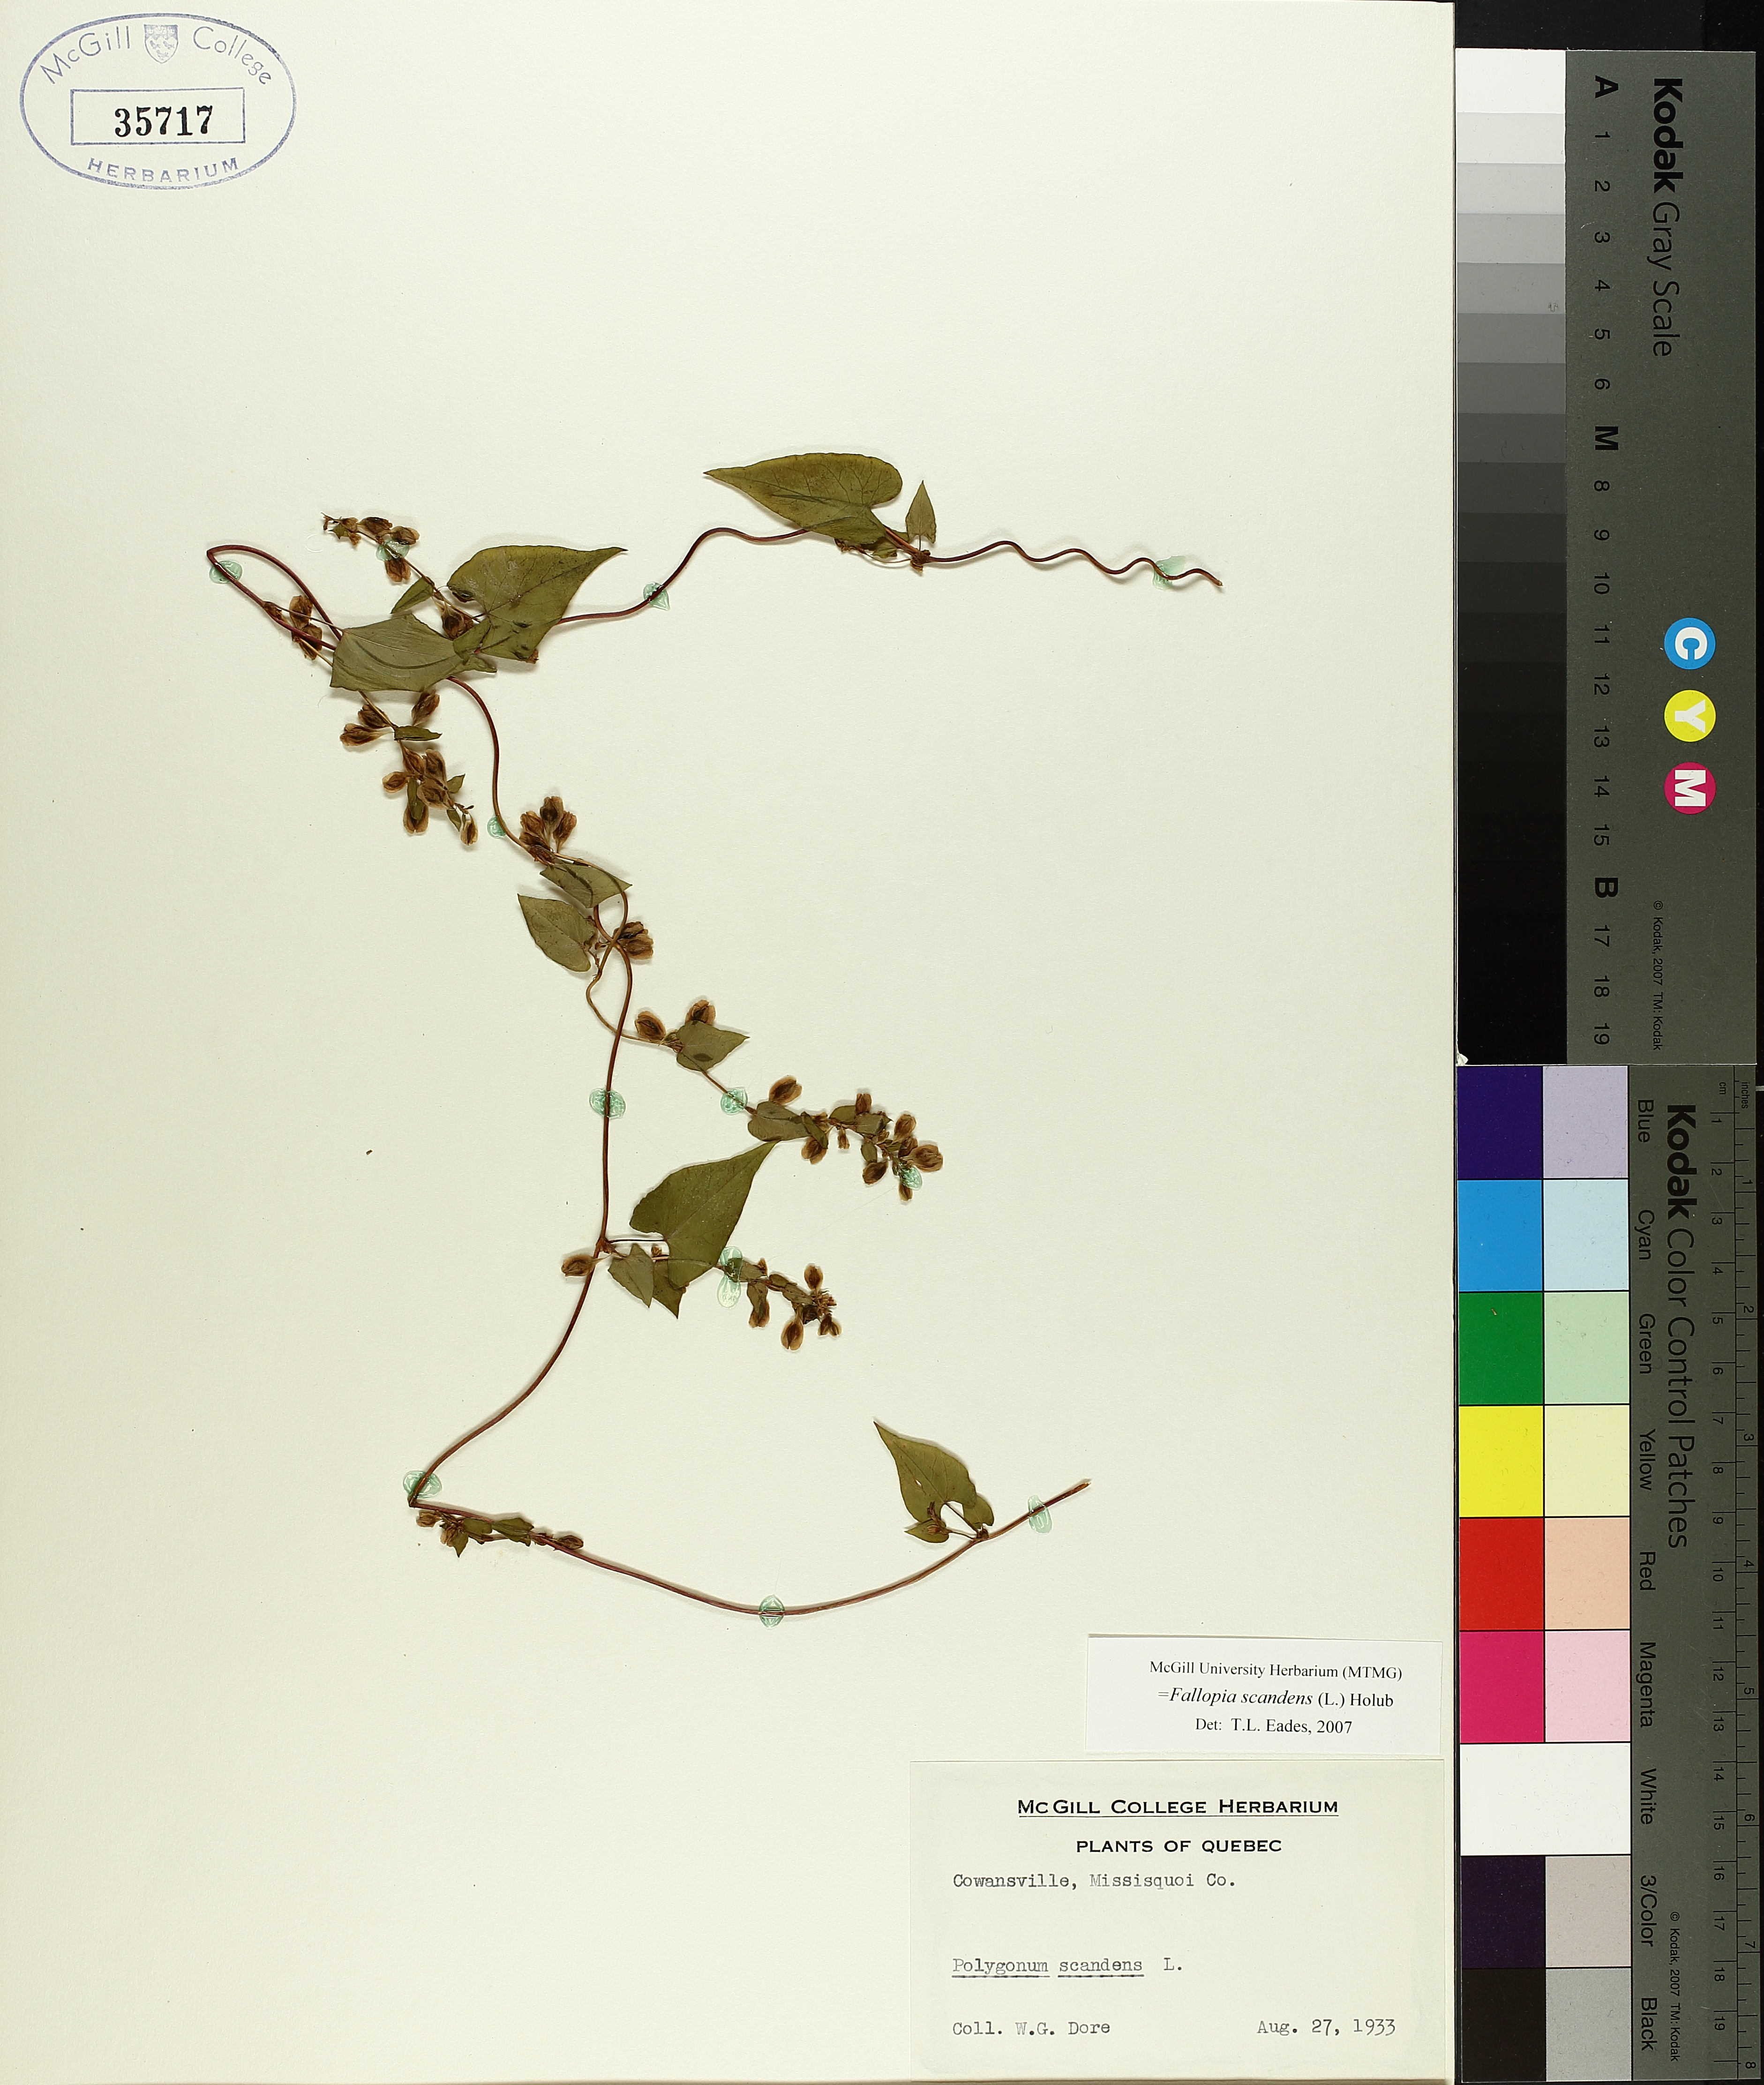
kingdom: Plantae
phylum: Tracheophyta
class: Magnoliopsida
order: Caryophyllales
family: Polygonaceae
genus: Fallopia
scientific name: Fallopia scandens
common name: Climbing false buckwheat
